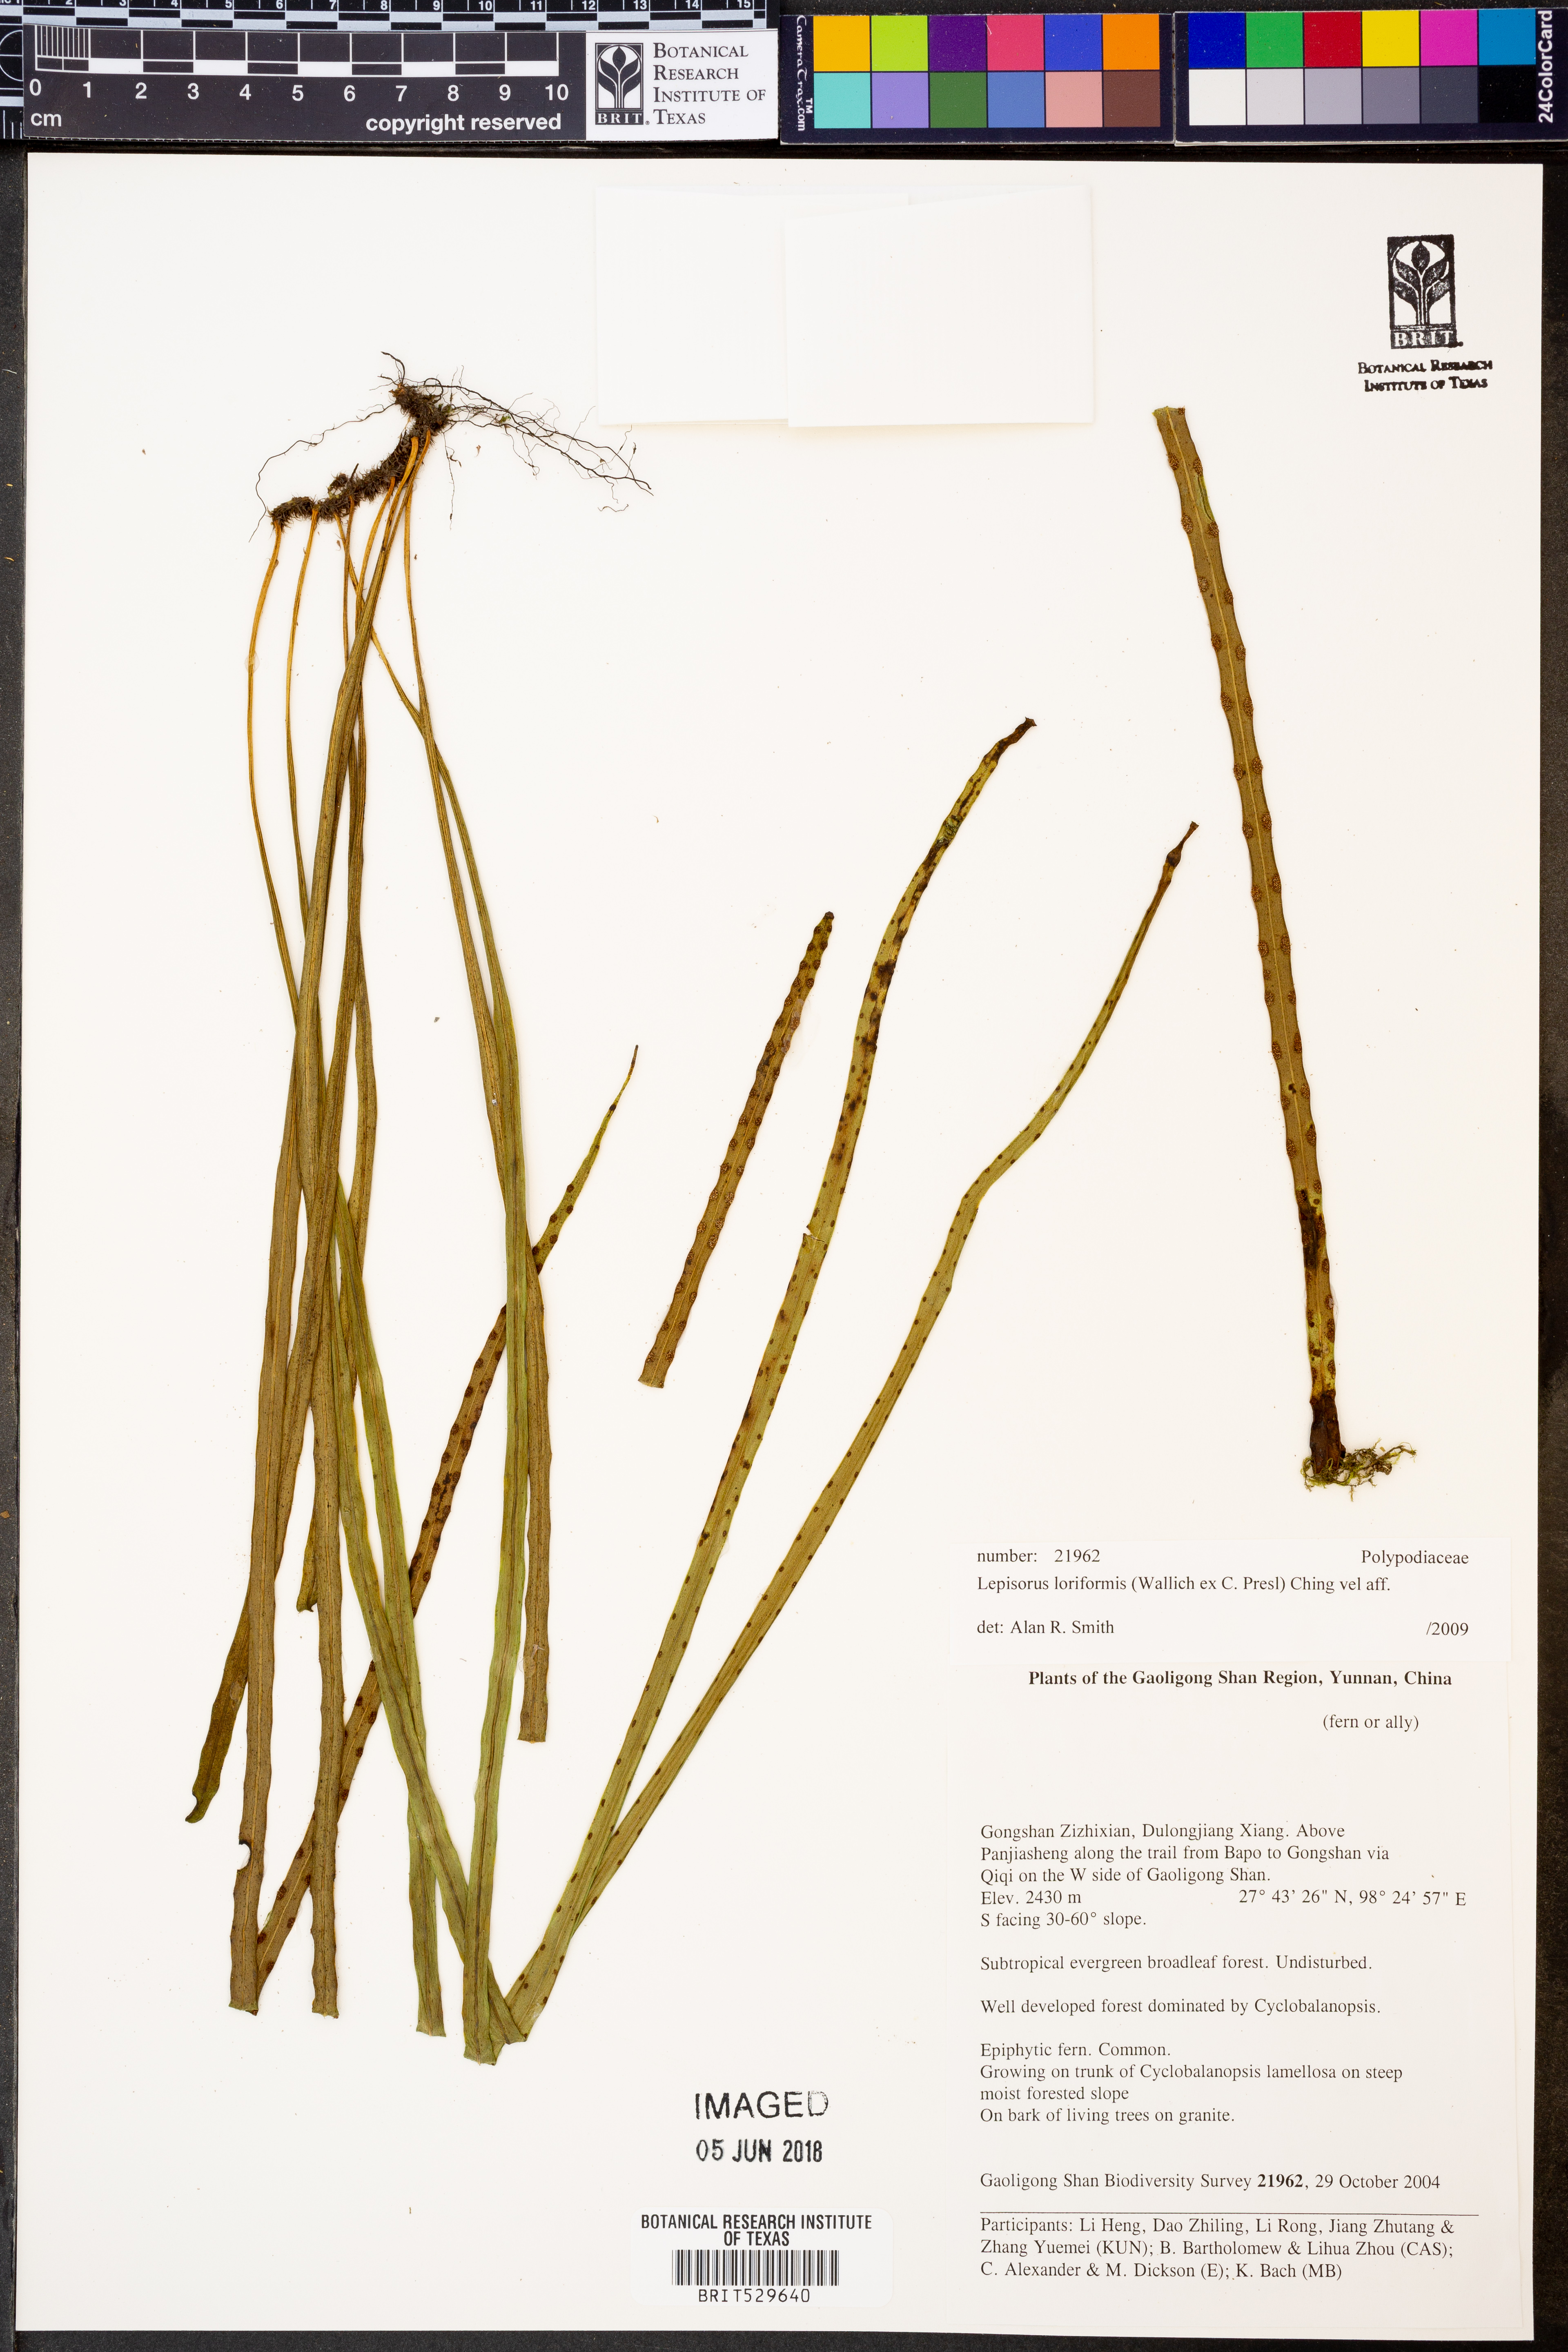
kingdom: Plantae
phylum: Tracheophyta
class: Polypodiopsida
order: Polypodiales
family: Polypodiaceae
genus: Lepisorus
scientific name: Lepisorus loriformis
